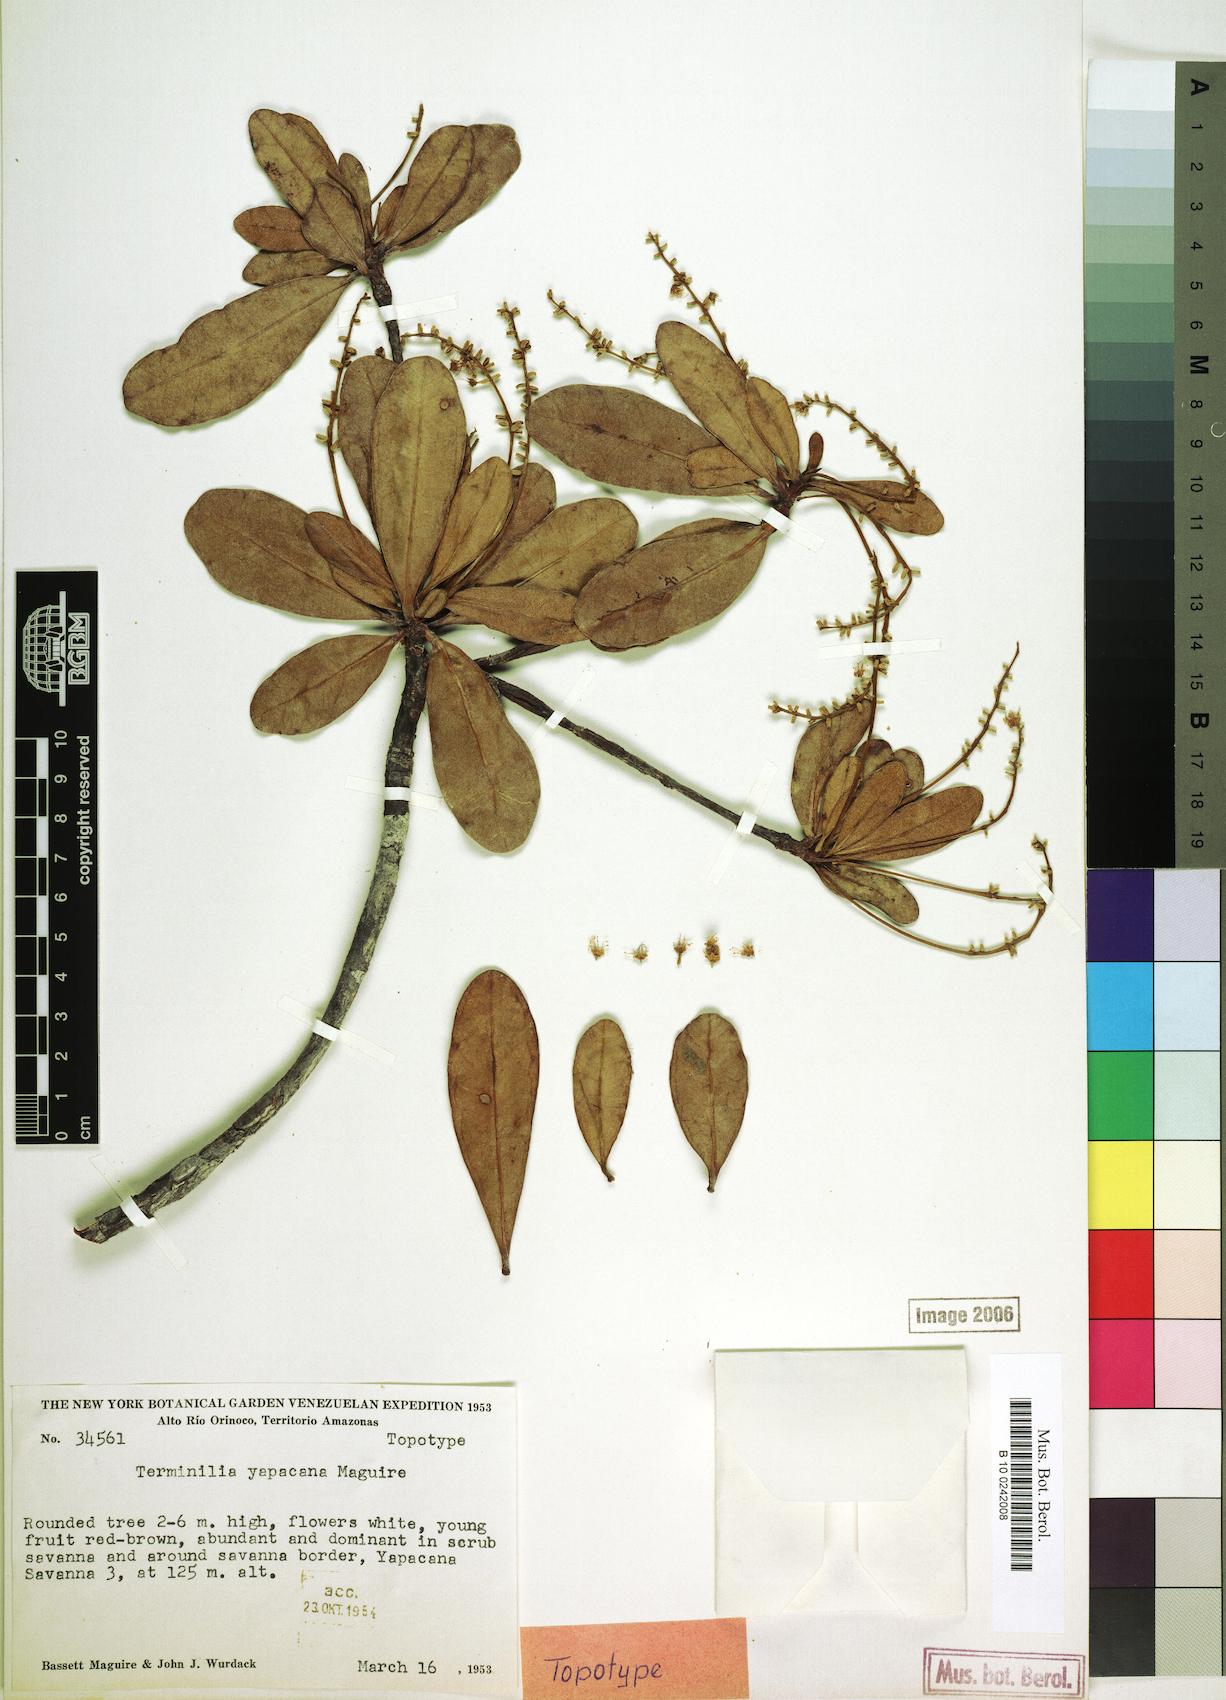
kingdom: Plantae
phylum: Tracheophyta
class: Magnoliopsida
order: Myrtales
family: Combretaceae
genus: Terminalia
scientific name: Terminalia yapacana
